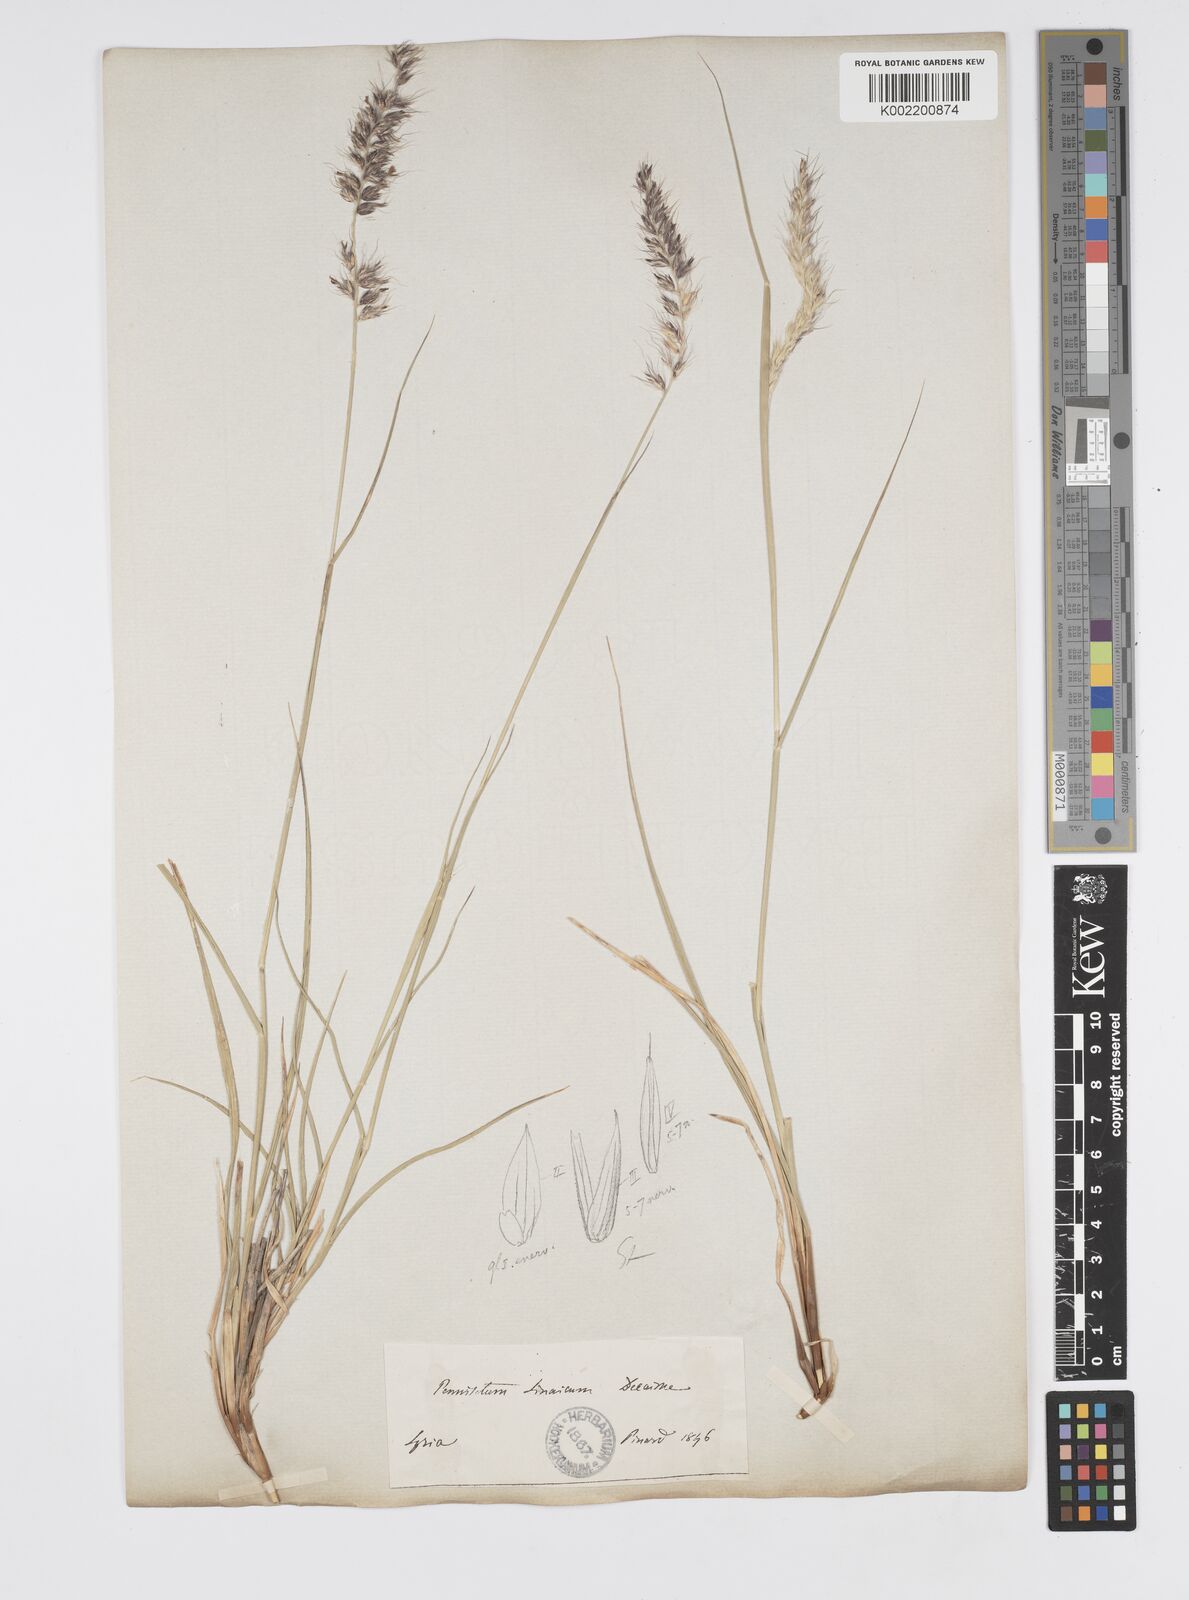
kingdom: Plantae
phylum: Tracheophyta
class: Liliopsida
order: Poales
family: Poaceae
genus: Cenchrus
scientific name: Cenchrus orientalis
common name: Oriental fountain grass
